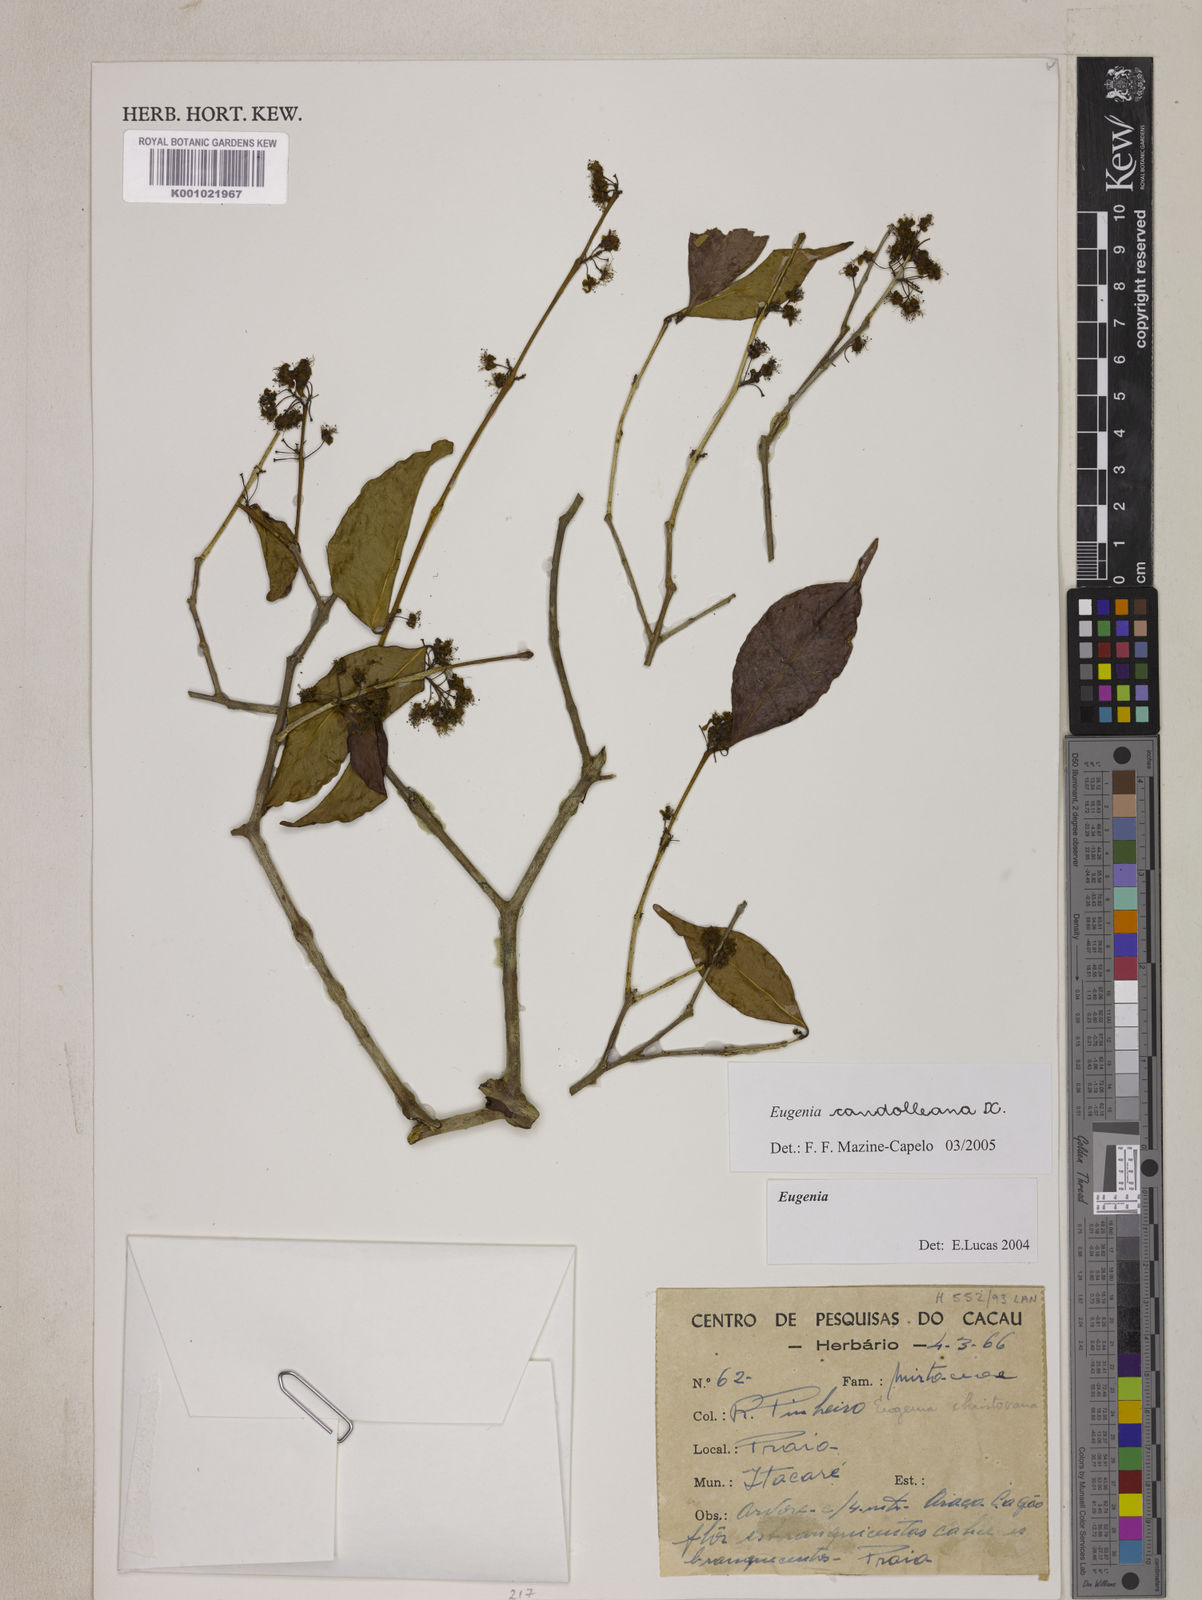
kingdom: Plantae
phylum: Tracheophyta
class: Magnoliopsida
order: Myrtales
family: Myrtaceae
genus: Eugenia
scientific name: Eugenia candolleana
